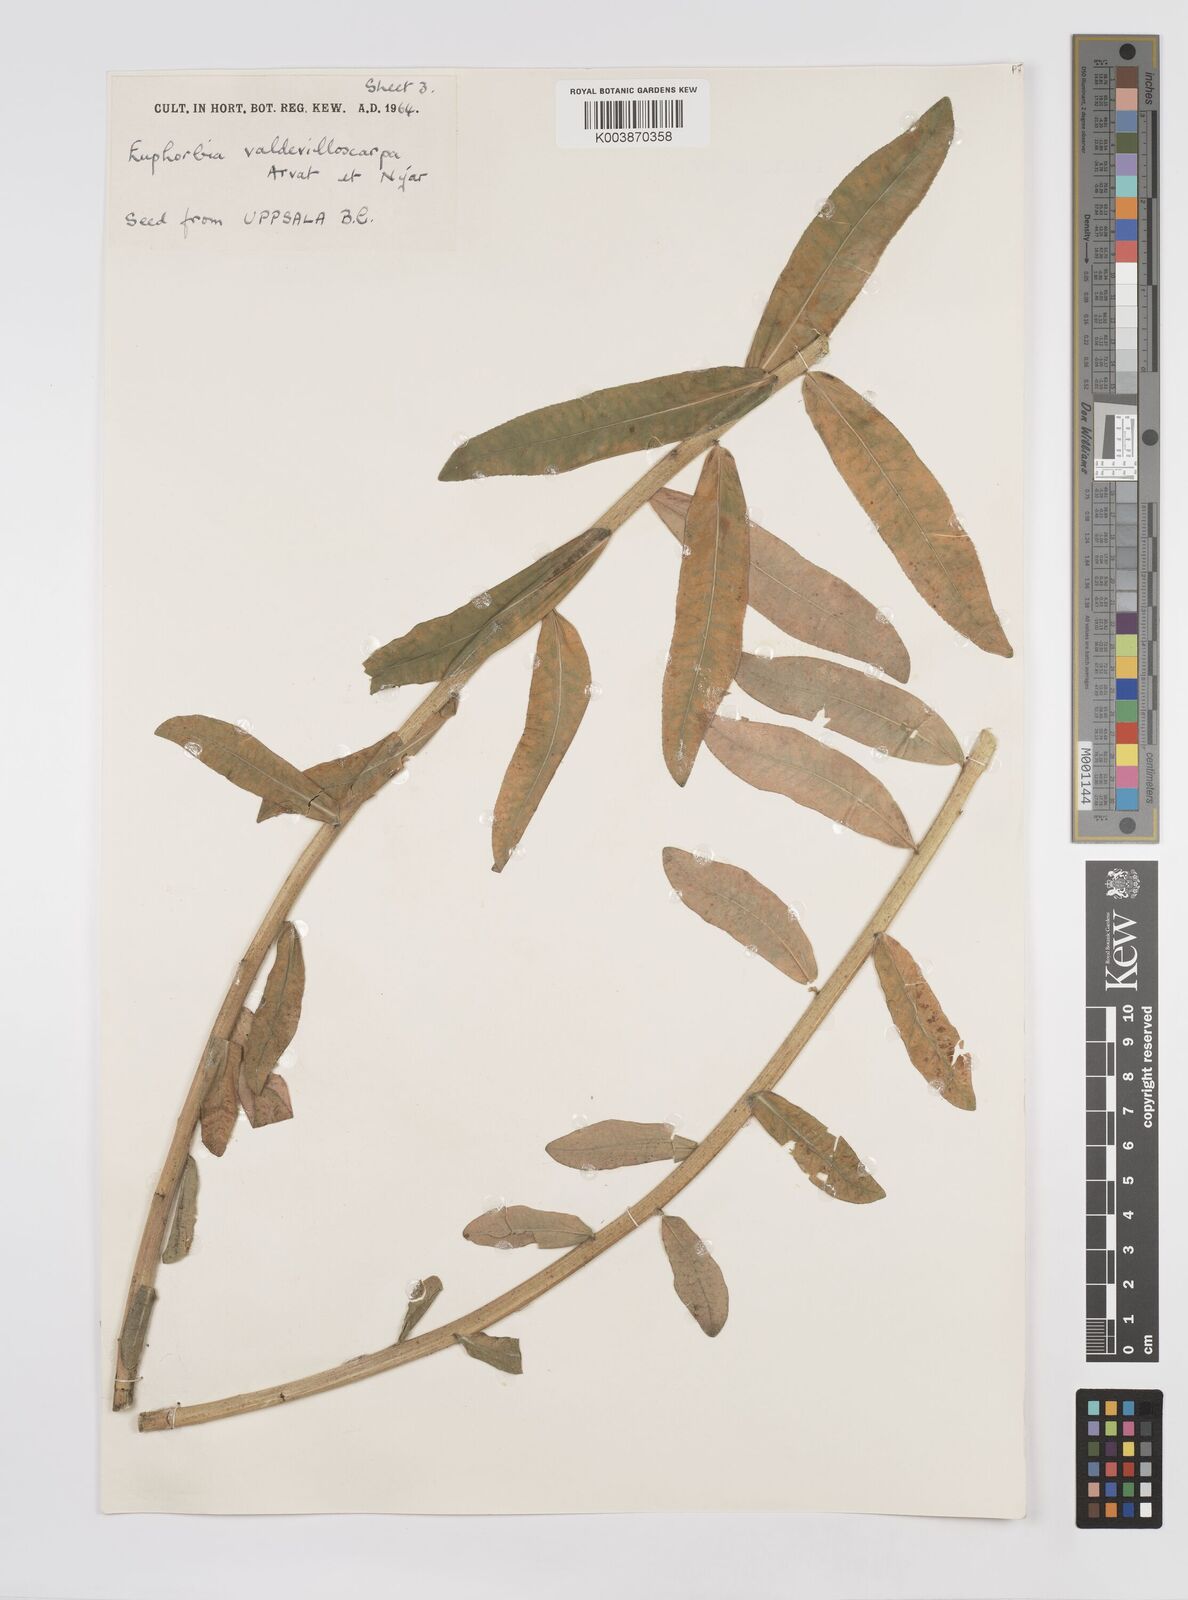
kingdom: Plantae
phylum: Tracheophyta
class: Magnoliopsida
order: Malpighiales
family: Euphorbiaceae
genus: Euphorbia
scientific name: Euphorbia valdevillosocarpa
